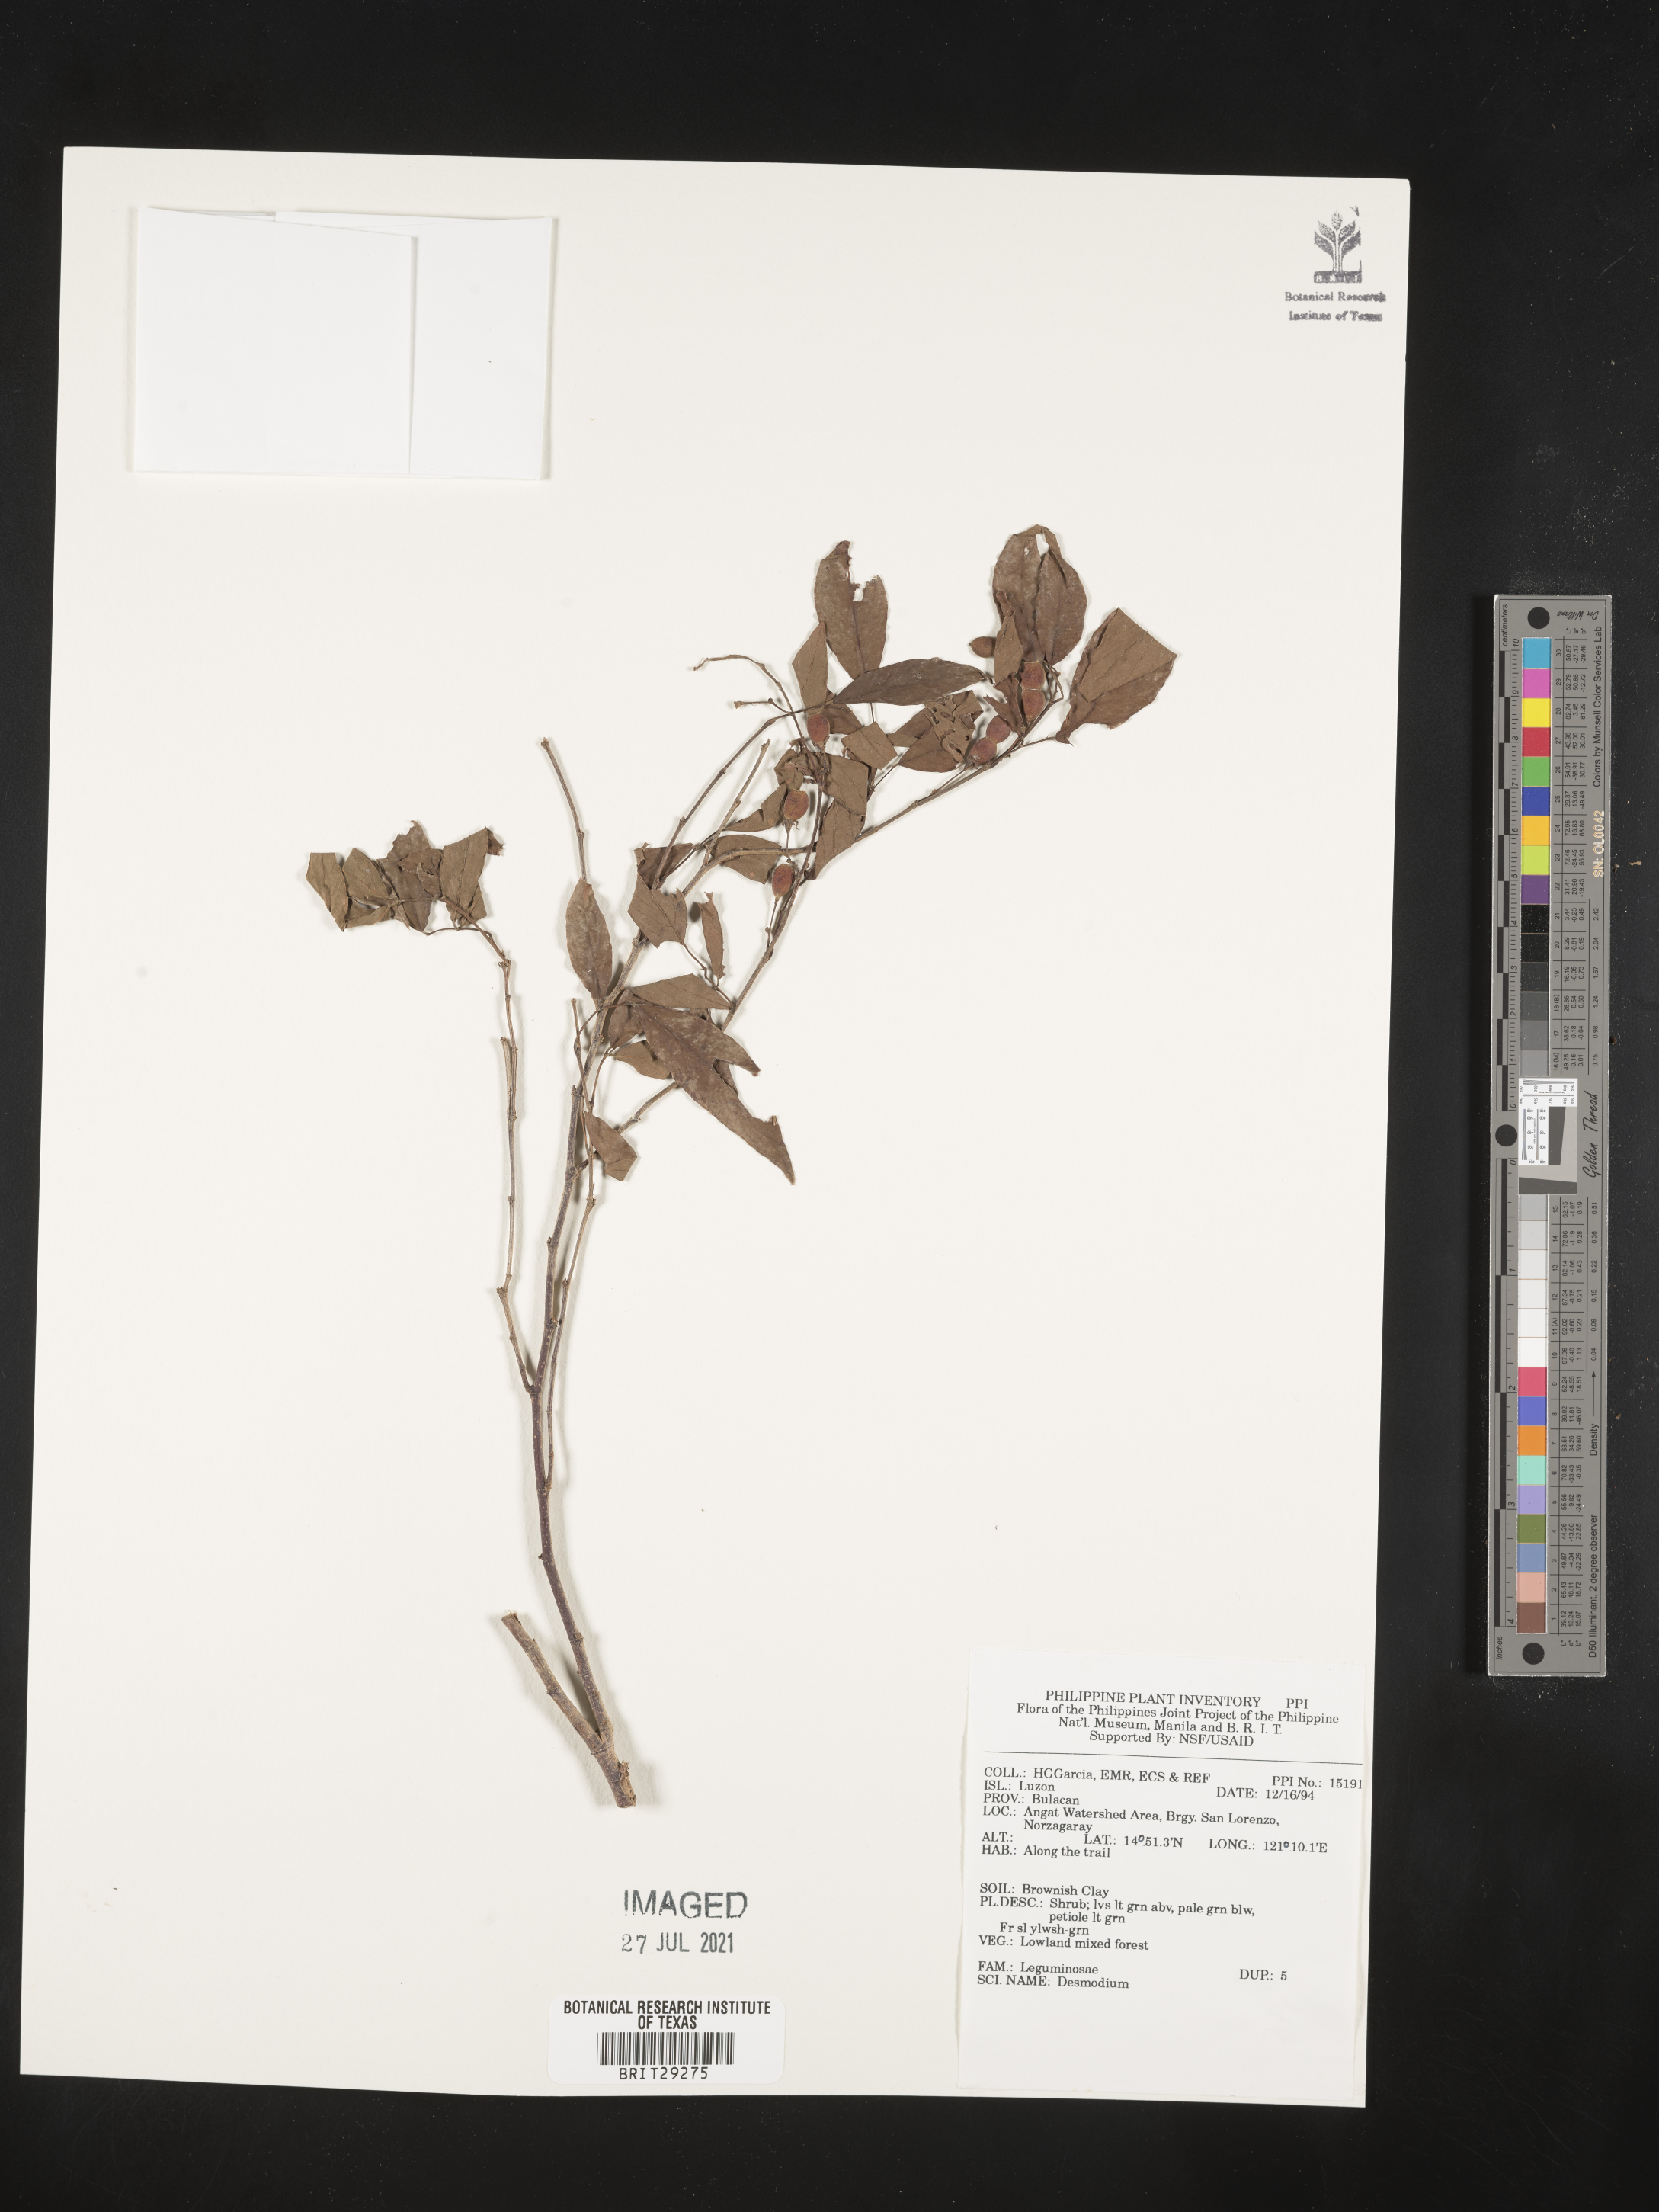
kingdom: Plantae
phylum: Tracheophyta
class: Magnoliopsida
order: Fabales
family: Fabaceae
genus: Desmodium
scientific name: Desmodium
